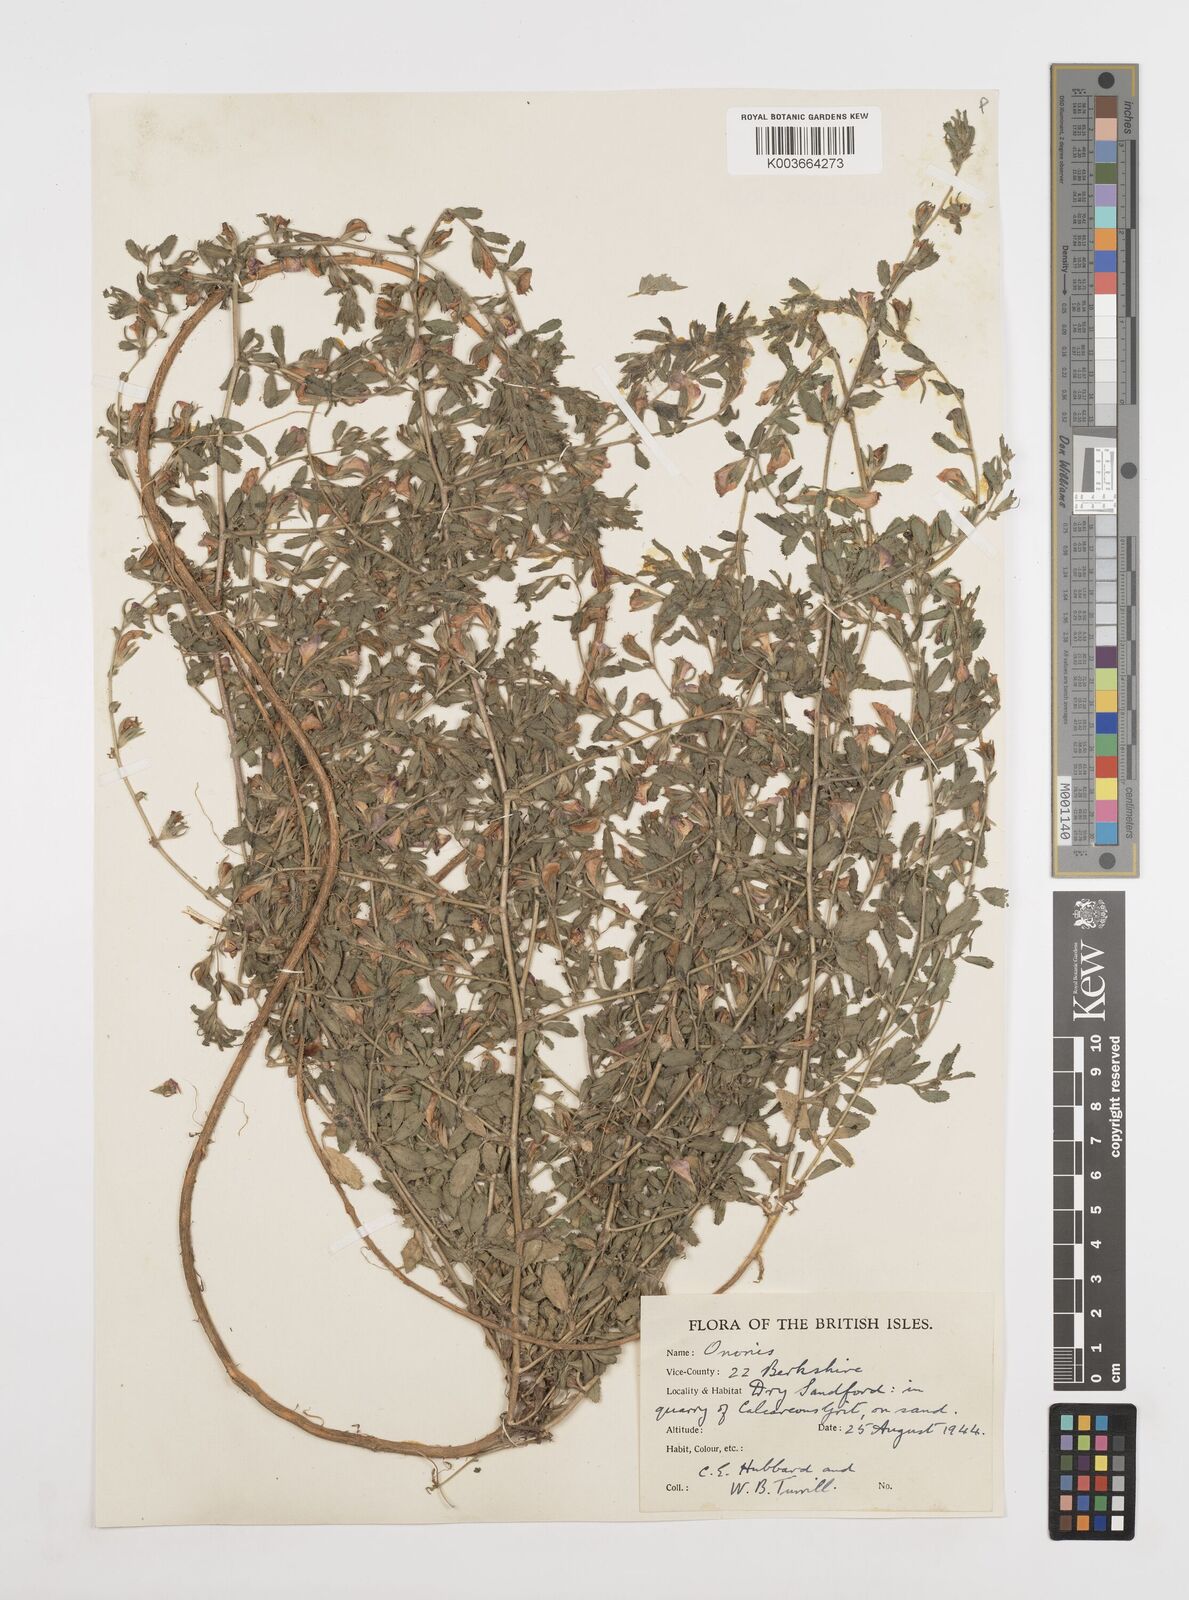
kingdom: Plantae
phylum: Tracheophyta
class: Magnoliopsida
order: Fabales
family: Fabaceae
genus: Ononis
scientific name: Ononis spinosa
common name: Spiny restharrow
